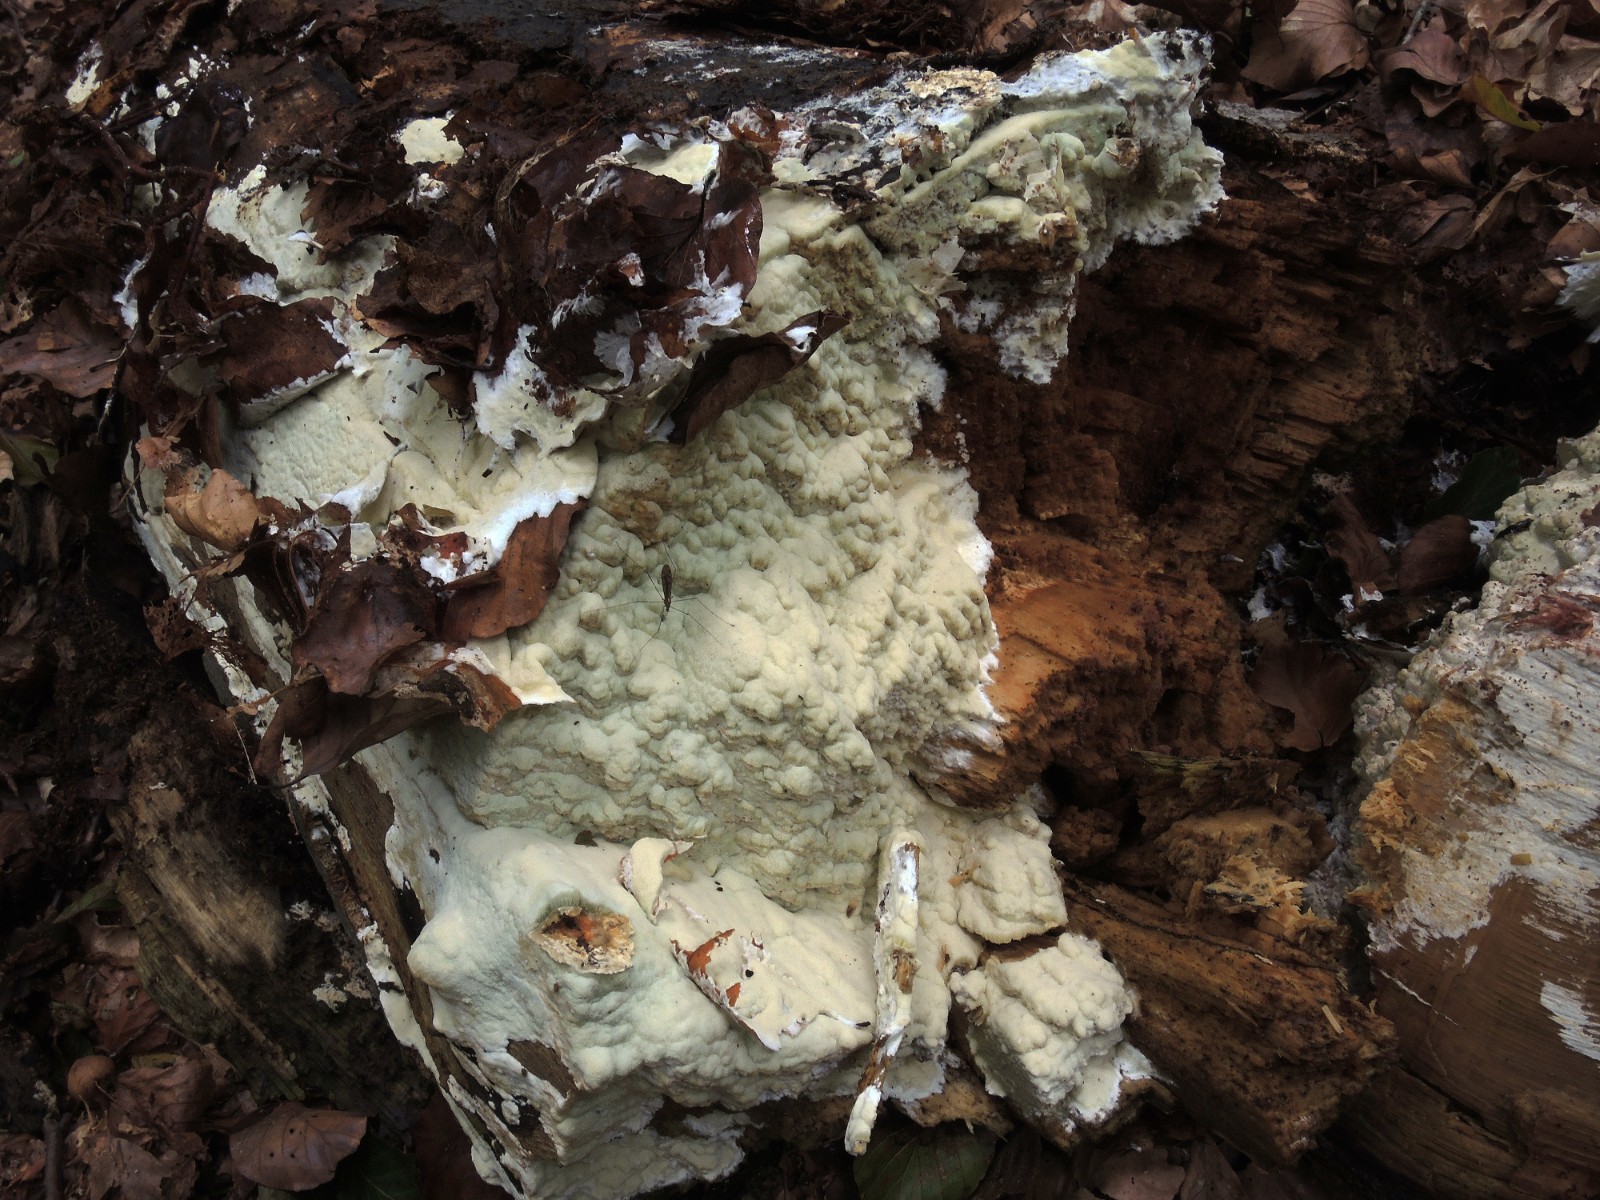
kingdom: Fungi
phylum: Basidiomycota
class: Agaricomycetes
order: Polyporales
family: Irpicaceae
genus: Gloeoporus
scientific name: Gloeoporus pannocinctus
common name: grøngul foldporesvamp
